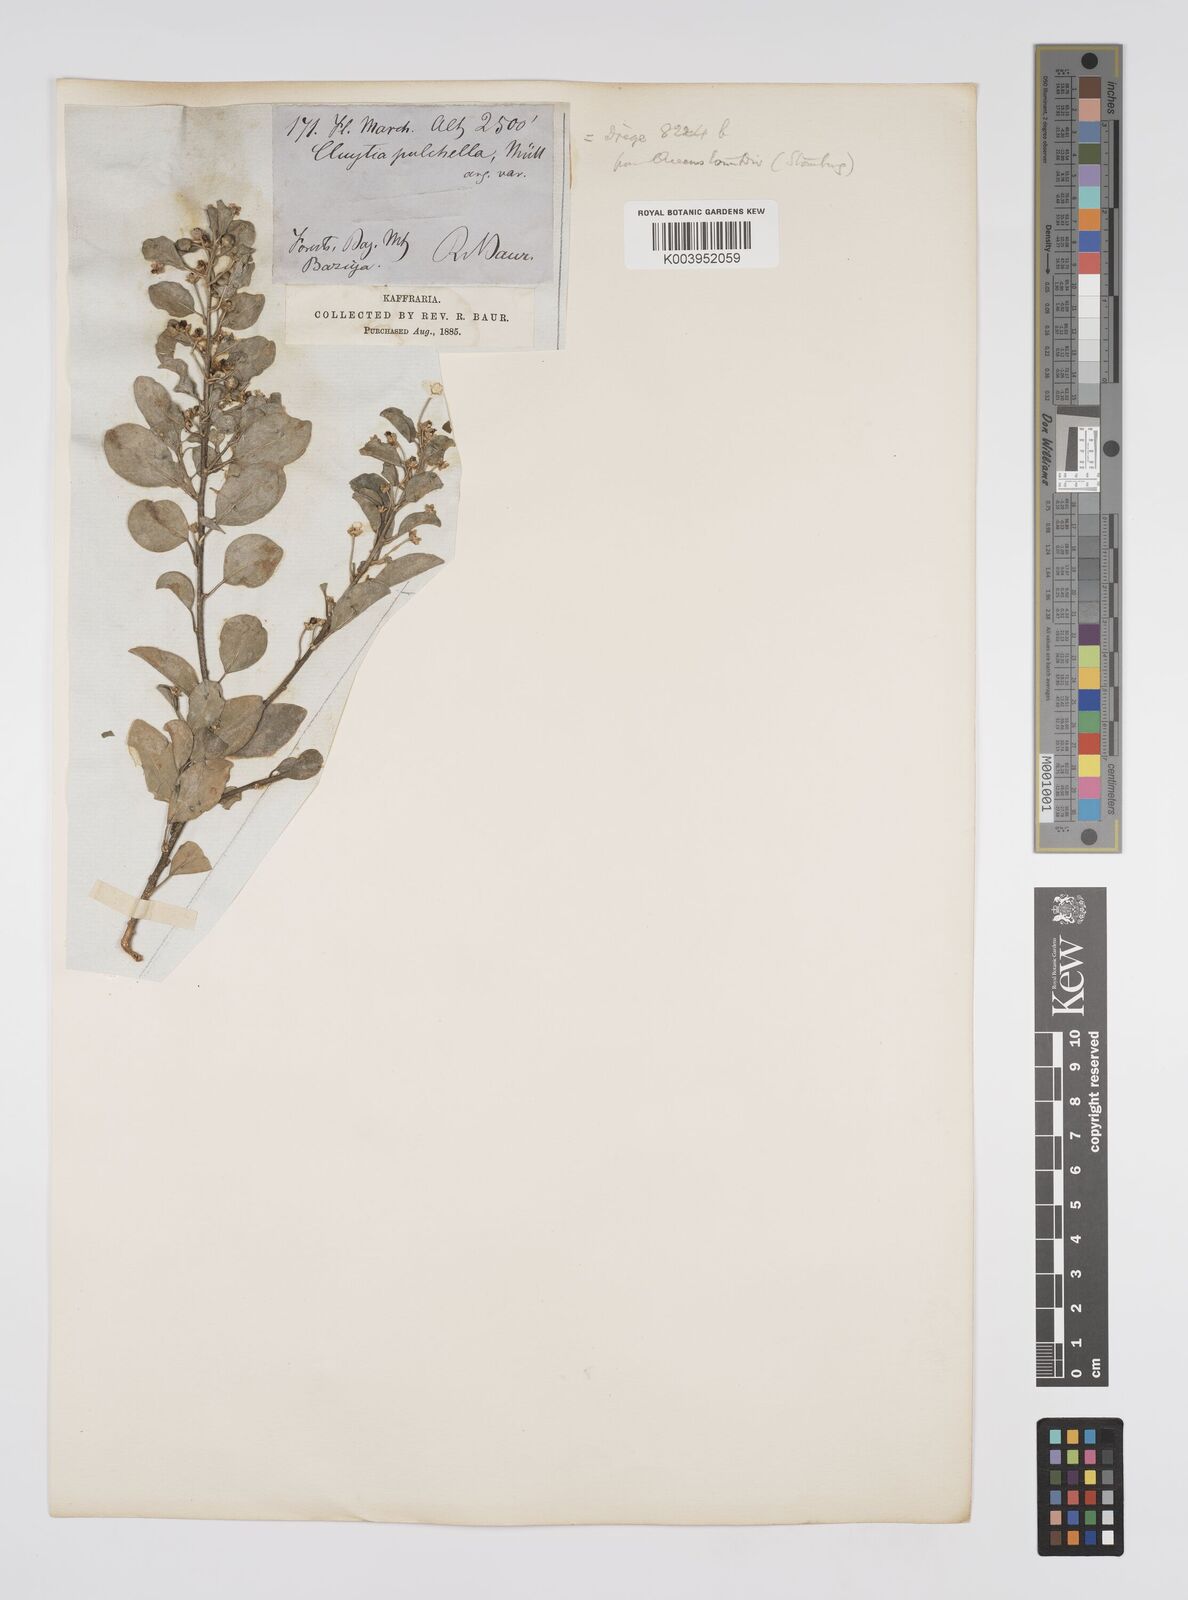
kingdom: Plantae
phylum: Tracheophyta
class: Magnoliopsida
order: Malpighiales
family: Peraceae
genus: Clutia
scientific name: Clutia pulchella
